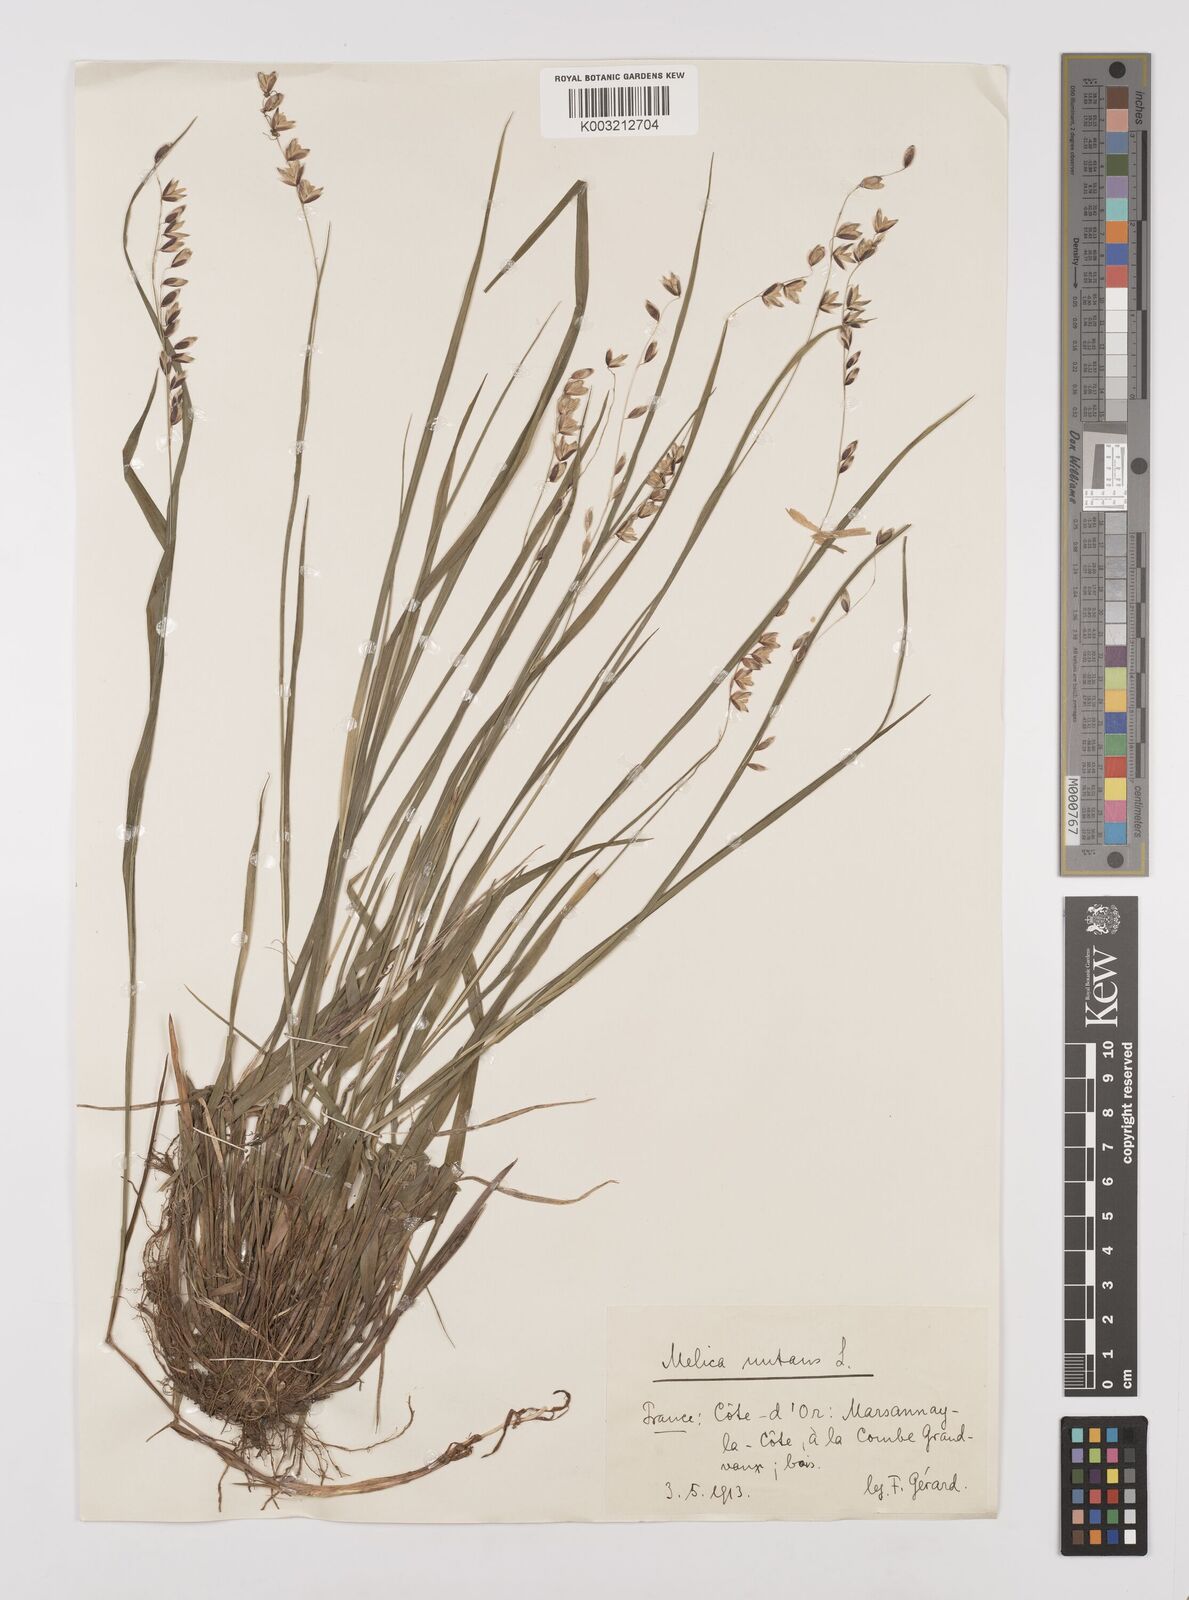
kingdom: Plantae
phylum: Tracheophyta
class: Liliopsida
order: Poales
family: Poaceae
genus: Melica
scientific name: Melica nutans
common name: Mountain melick
